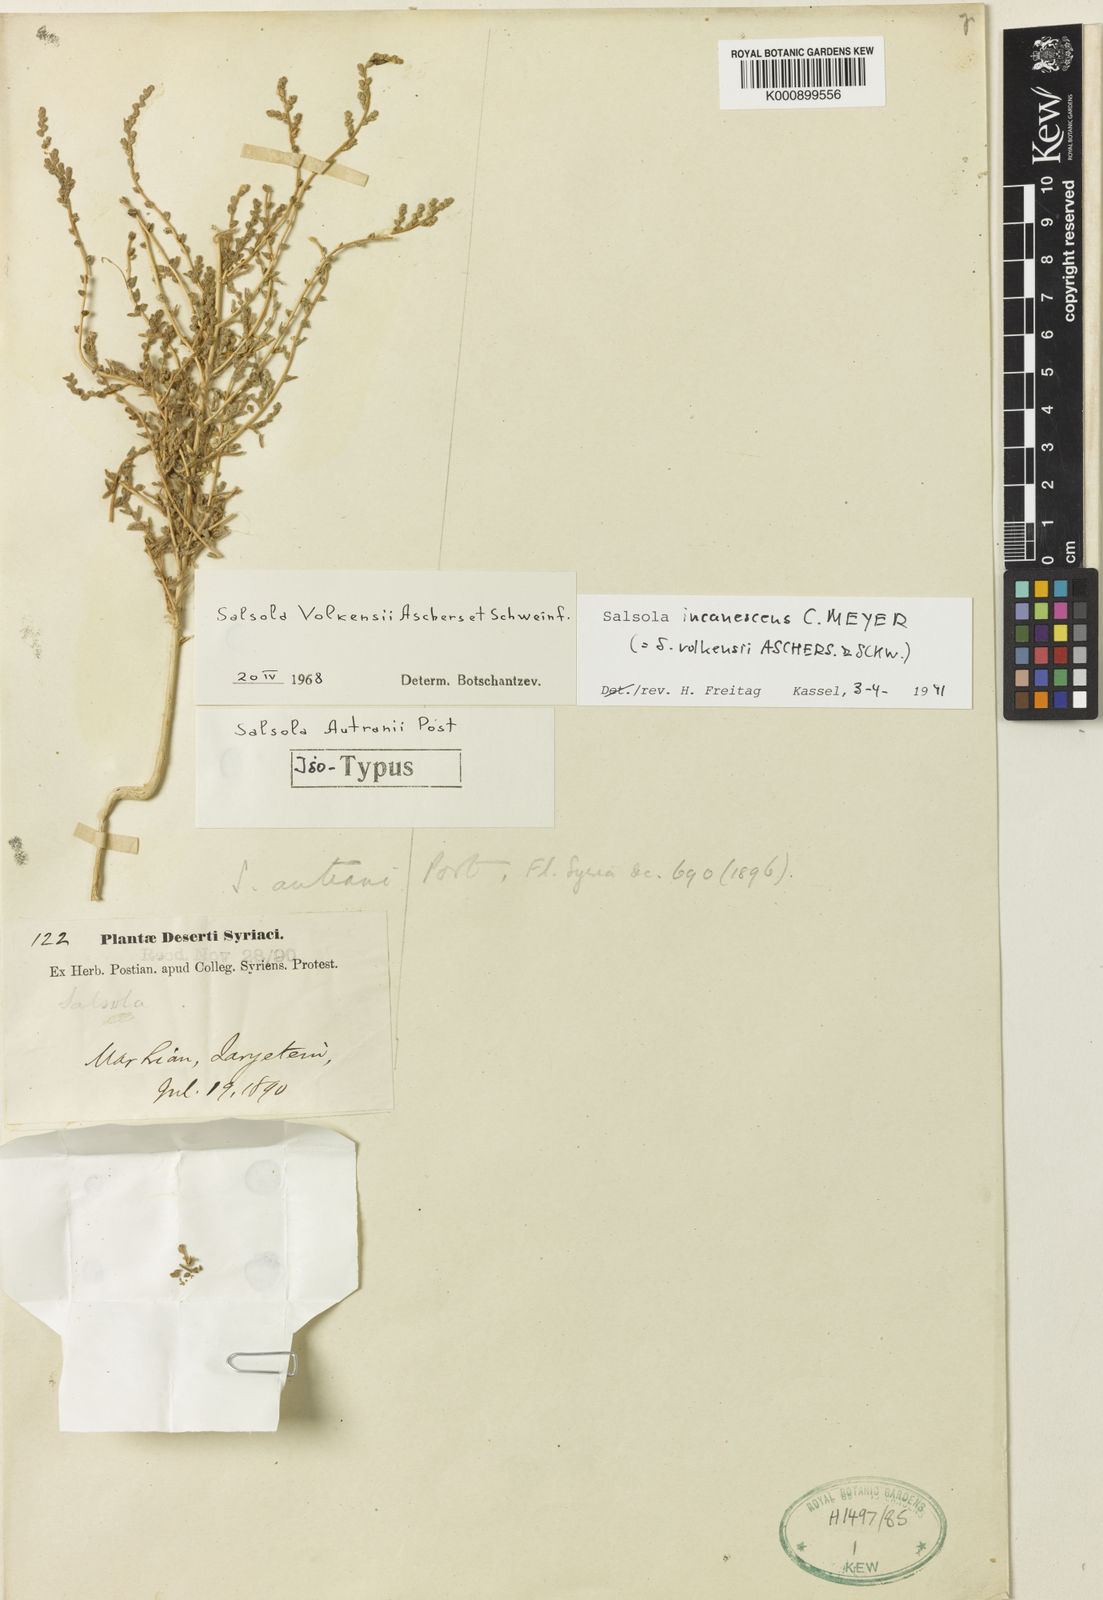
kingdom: Plantae
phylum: Tracheophyta
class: Magnoliopsida
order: Caryophyllales
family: Amaranthaceae
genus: Nitrosalsola
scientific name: Nitrosalsola incanescens
